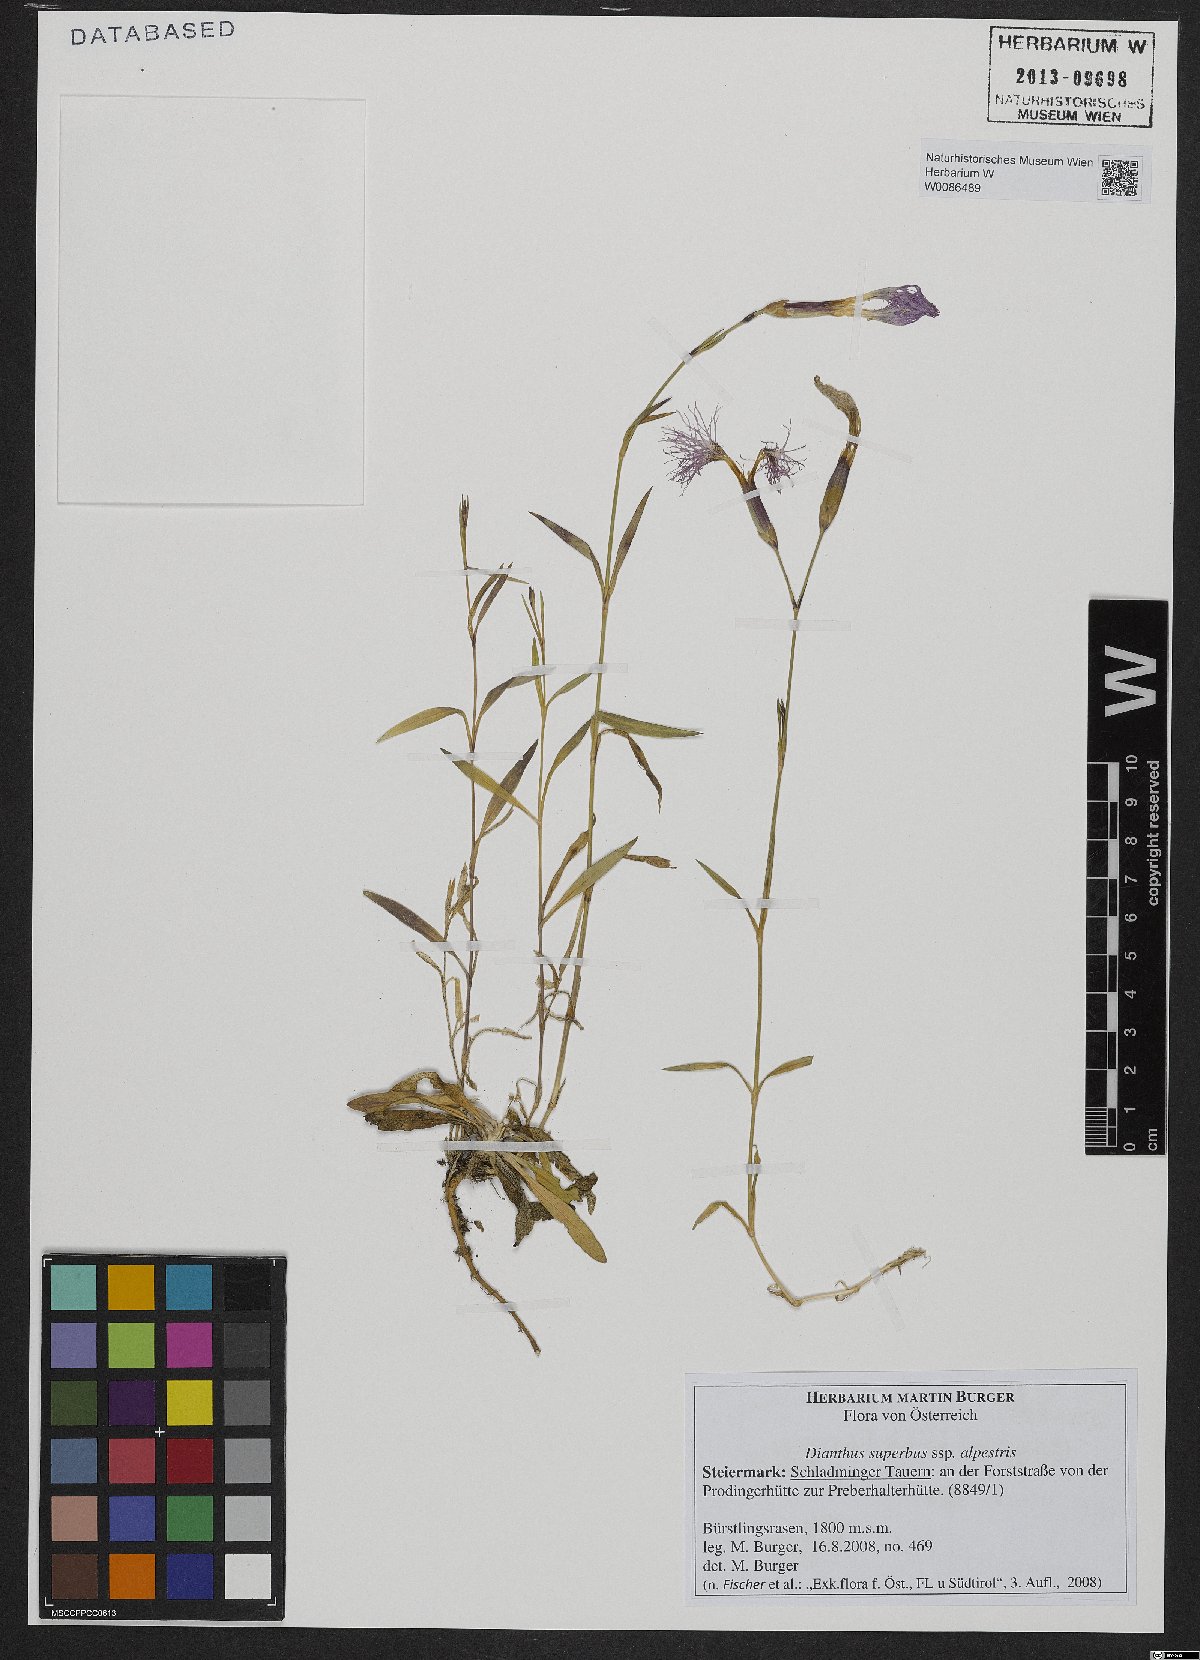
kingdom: Plantae
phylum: Tracheophyta
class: Magnoliopsida
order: Caryophyllales
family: Caryophyllaceae
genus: Dianthus
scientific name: Dianthus superbus
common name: Fringed pink
